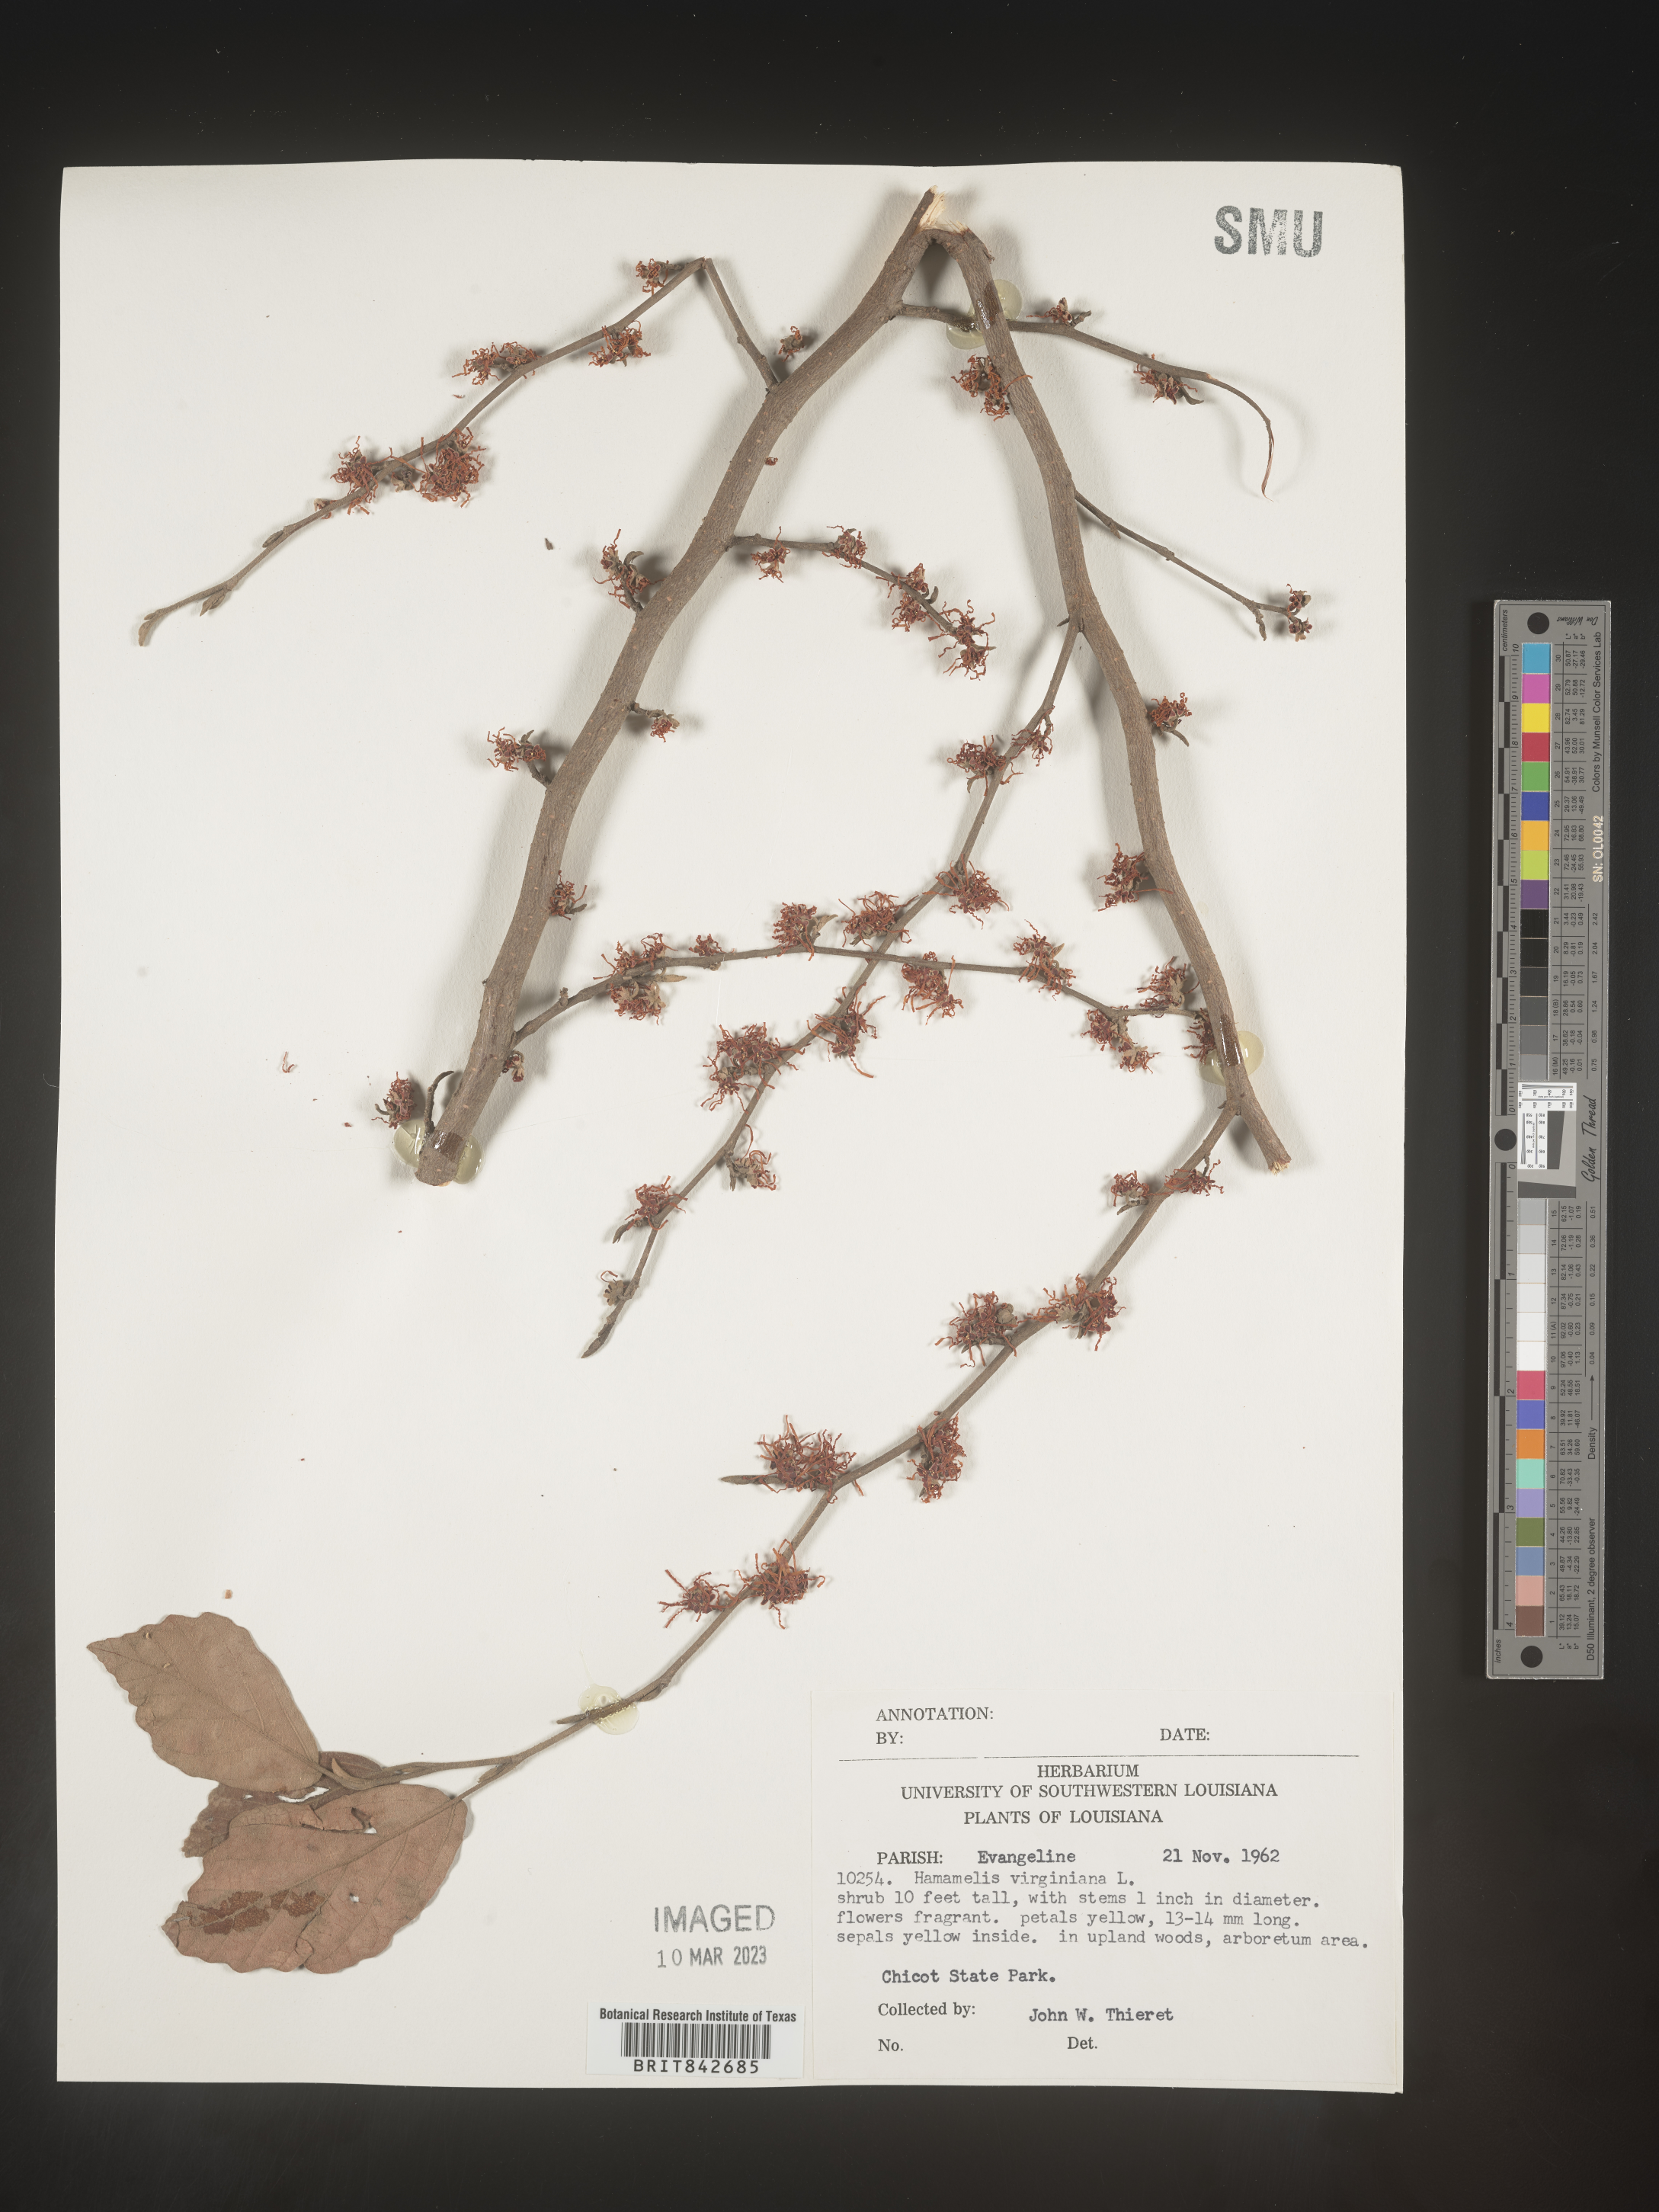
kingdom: Plantae
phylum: Tracheophyta
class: Magnoliopsida
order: Saxifragales
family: Hamamelidaceae
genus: Hamamelis
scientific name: Hamamelis virginiana
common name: Witch-hazel
